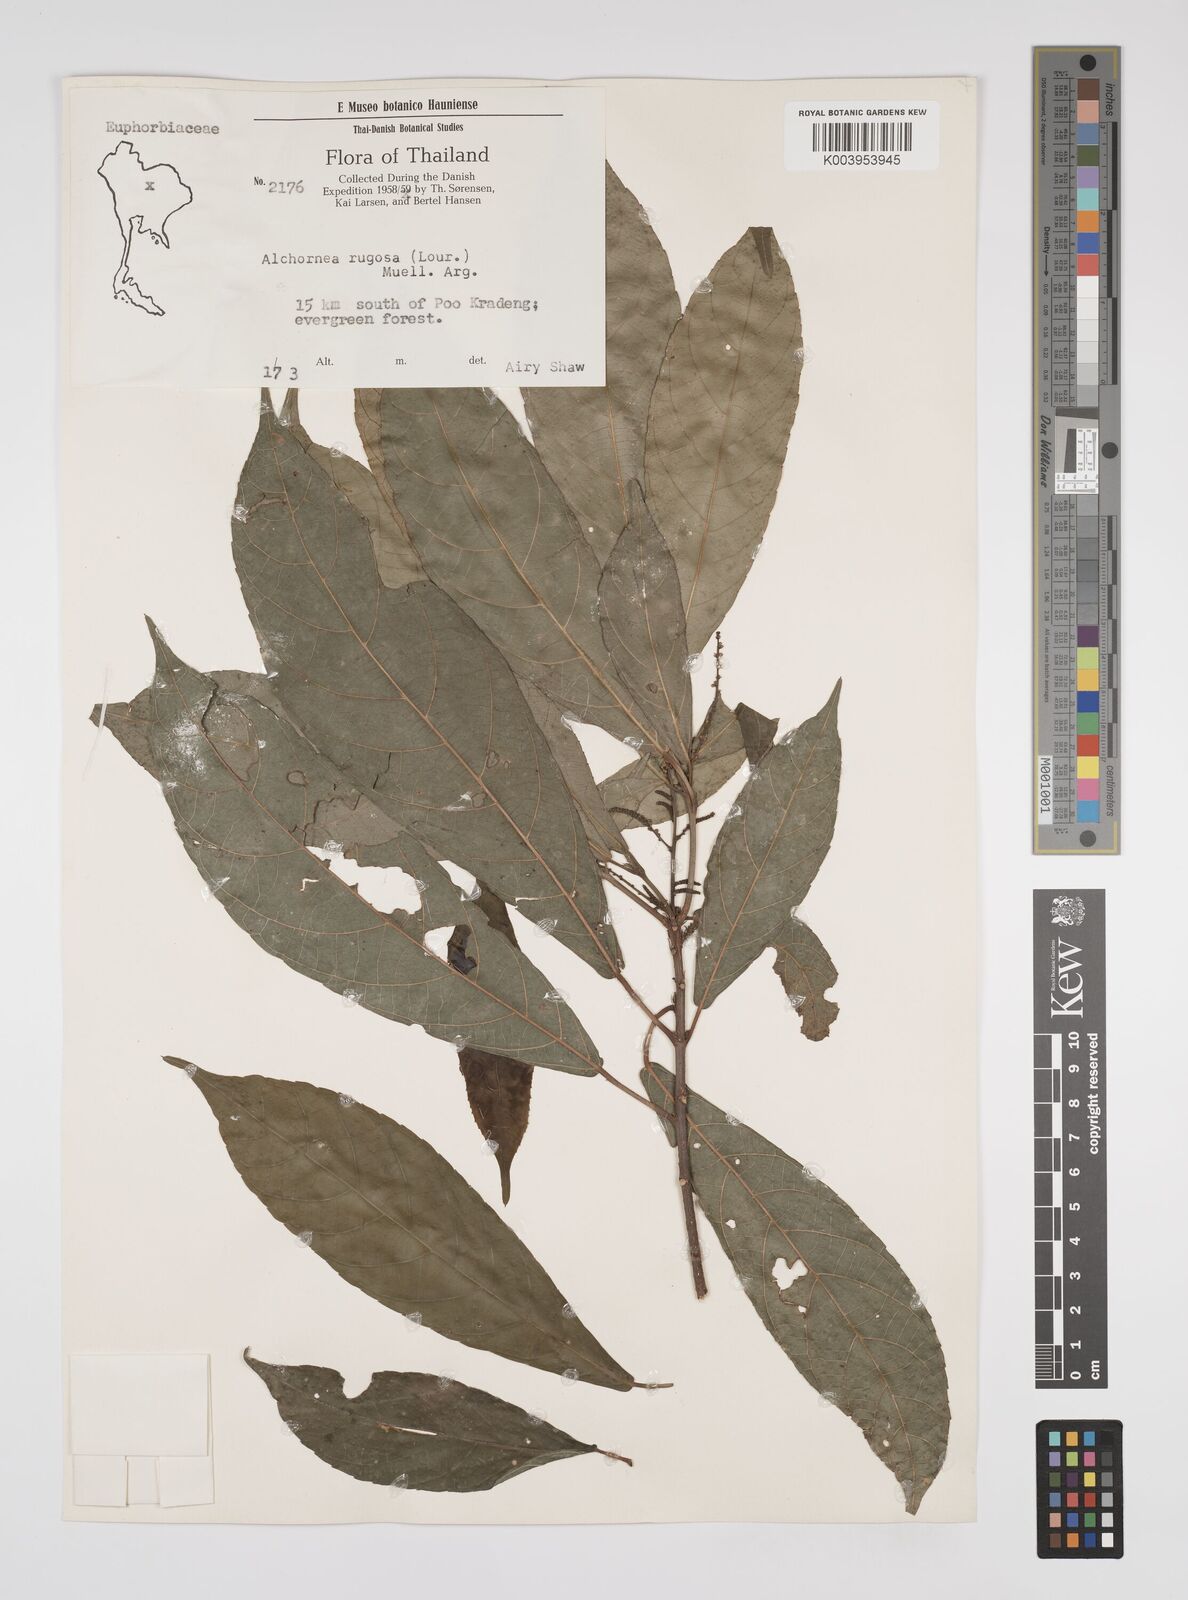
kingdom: Plantae
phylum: Tracheophyta
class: Magnoliopsida
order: Malpighiales
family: Euphorbiaceae
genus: Alchornea
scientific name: Alchornea rugosa
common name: Alchorntree
